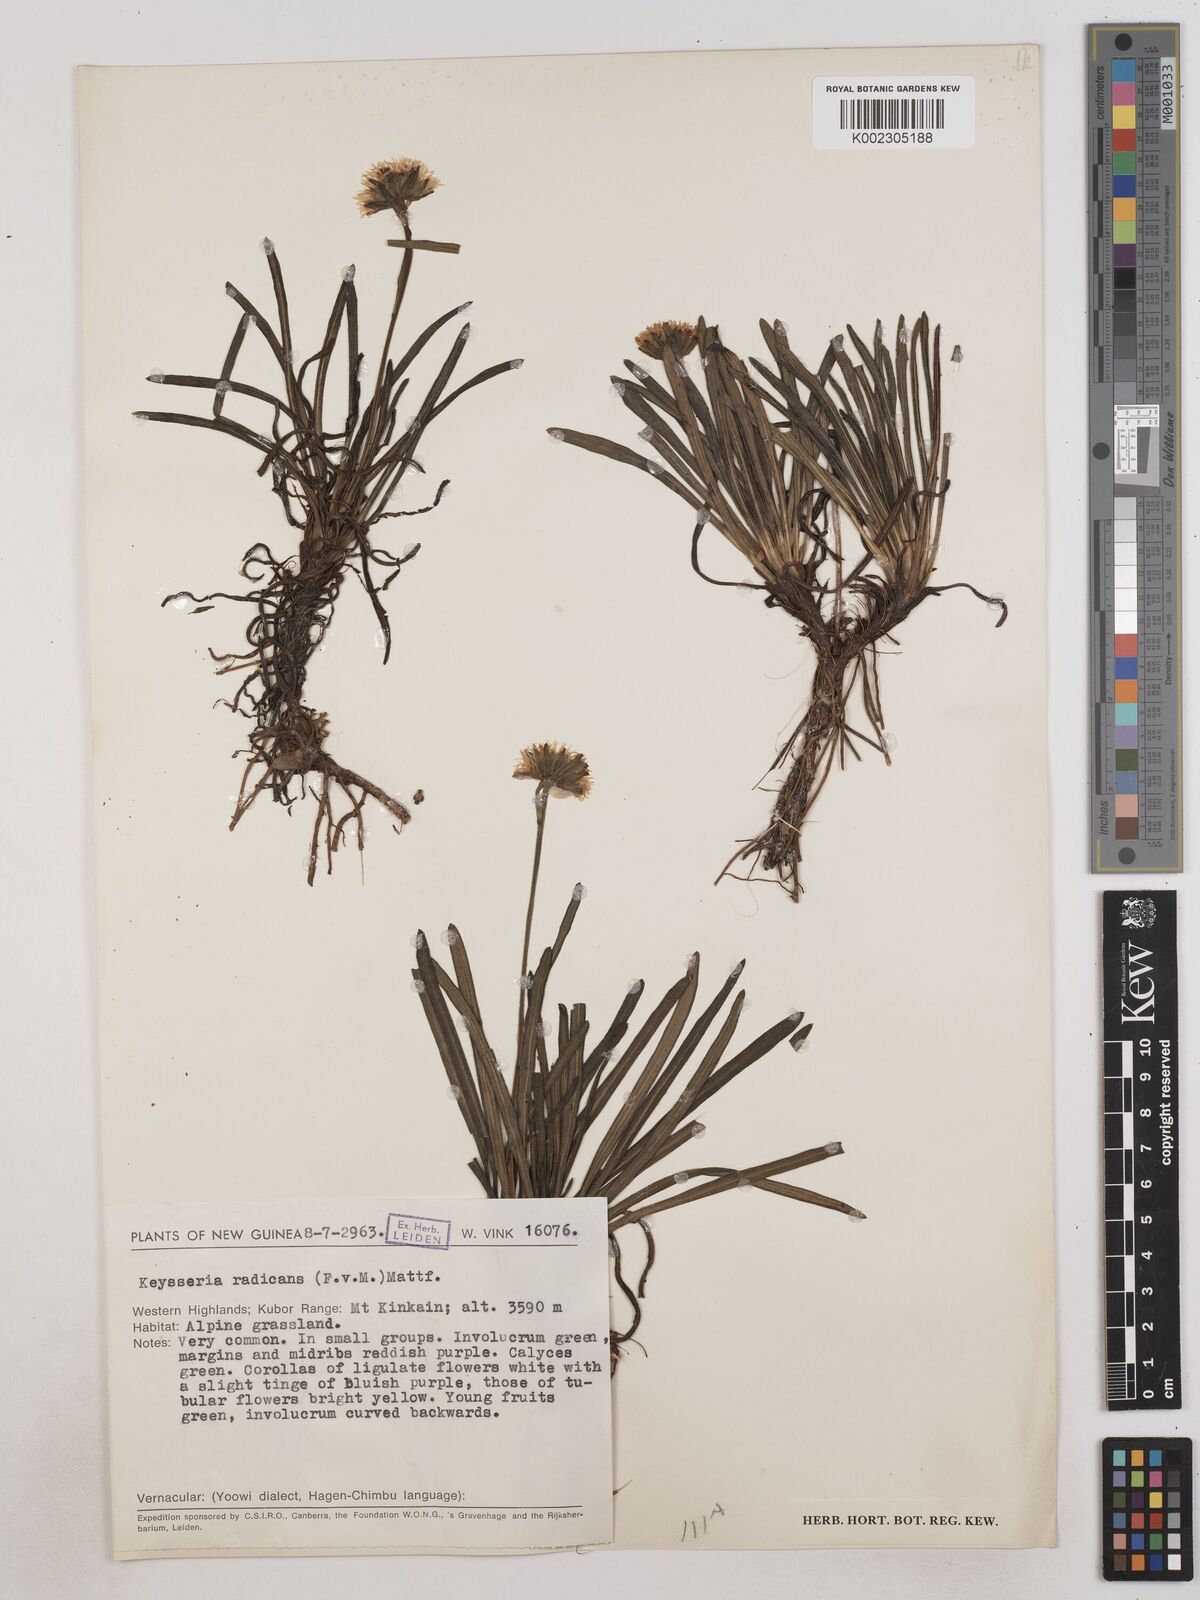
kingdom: Plantae
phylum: Tracheophyta
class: Magnoliopsida
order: Asterales
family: Asteraceae
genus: Keysseria
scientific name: Keysseria radicans
